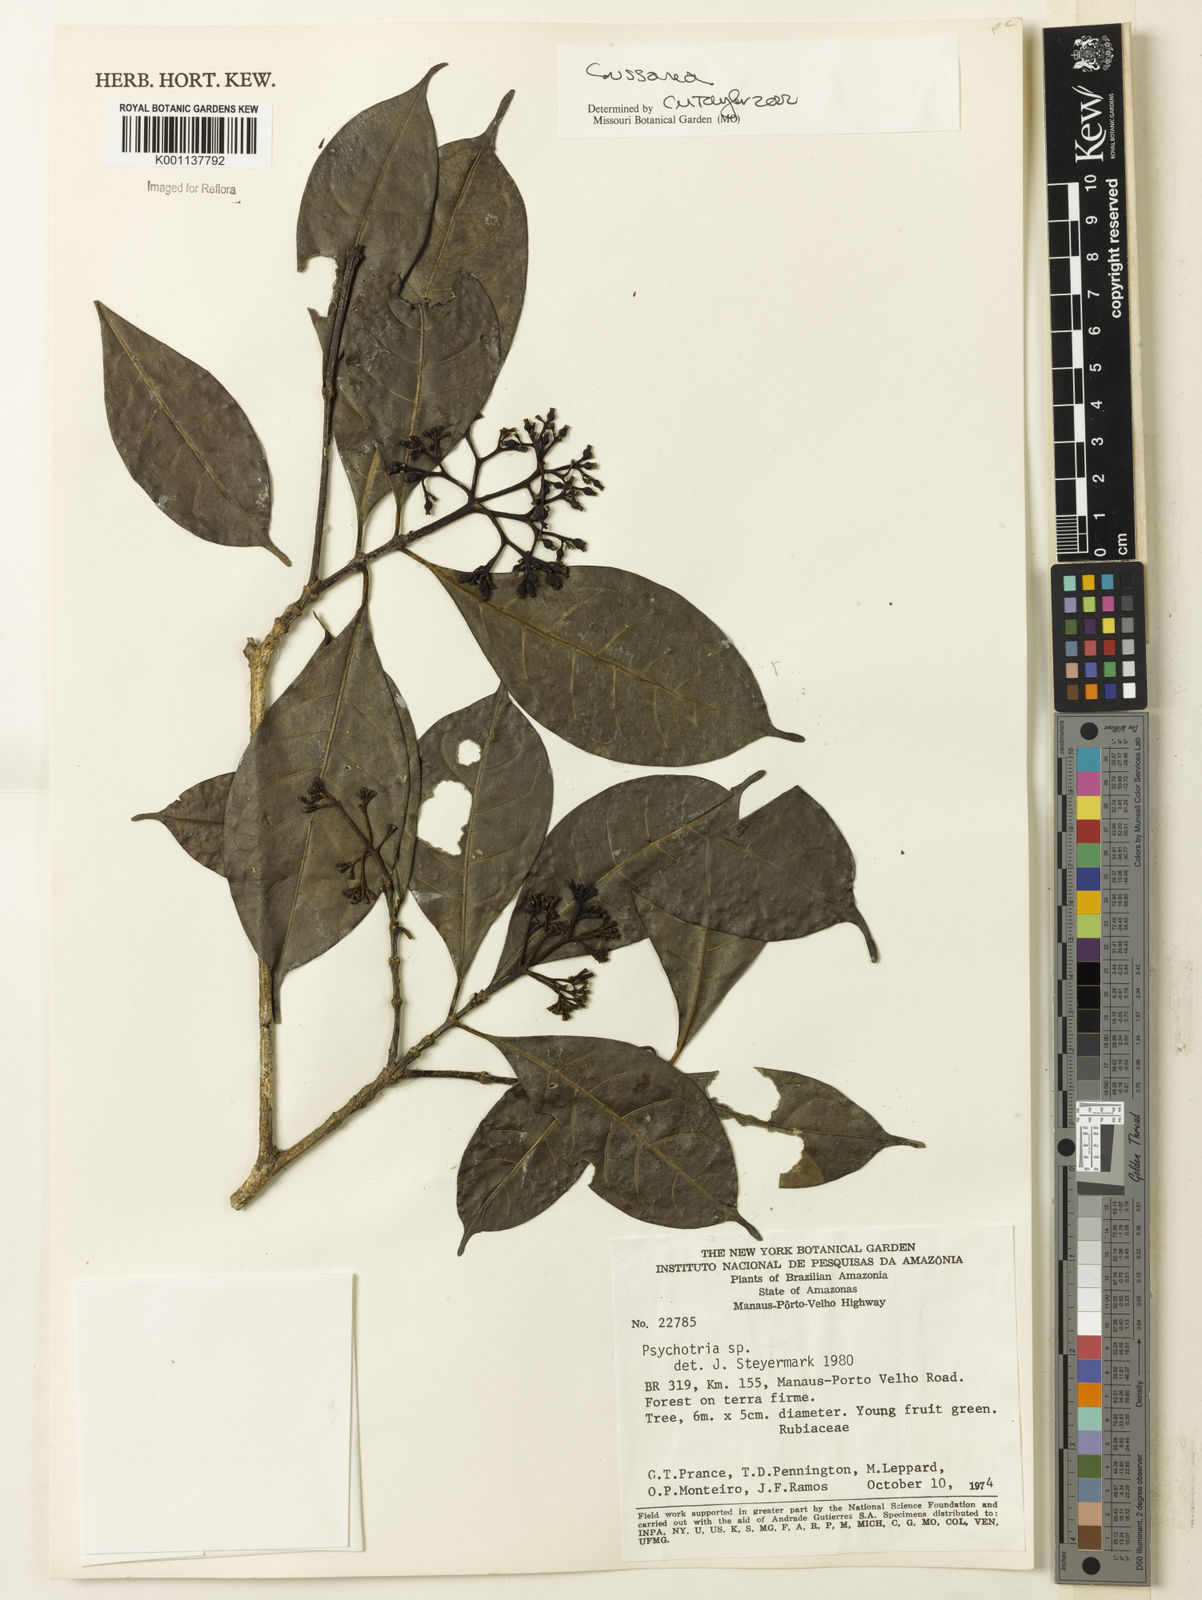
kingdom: Plantae
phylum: Tracheophyta
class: Magnoliopsida
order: Gentianales
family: Rubiaceae
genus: Coussarea
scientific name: Coussarea
